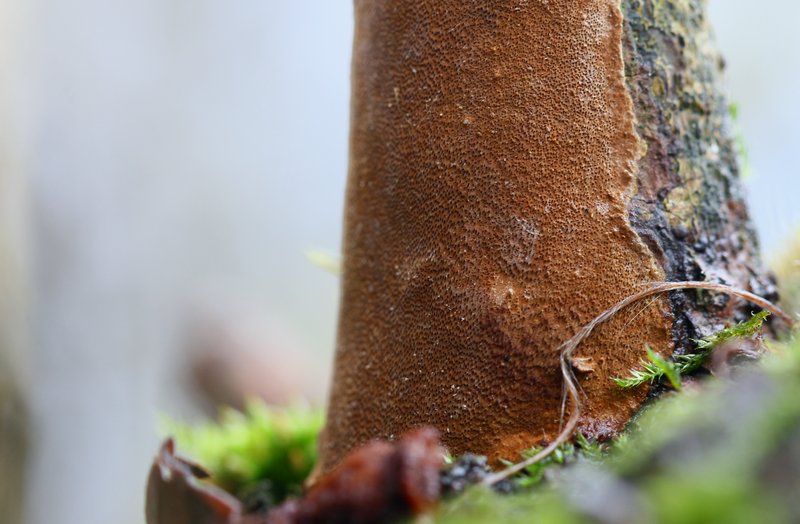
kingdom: Fungi
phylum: Basidiomycota
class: Agaricomycetes
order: Hymenochaetales
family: Hymenochaetaceae
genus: Fomitiporia
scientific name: Fomitiporia punctata
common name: pude-ildporesvamp
